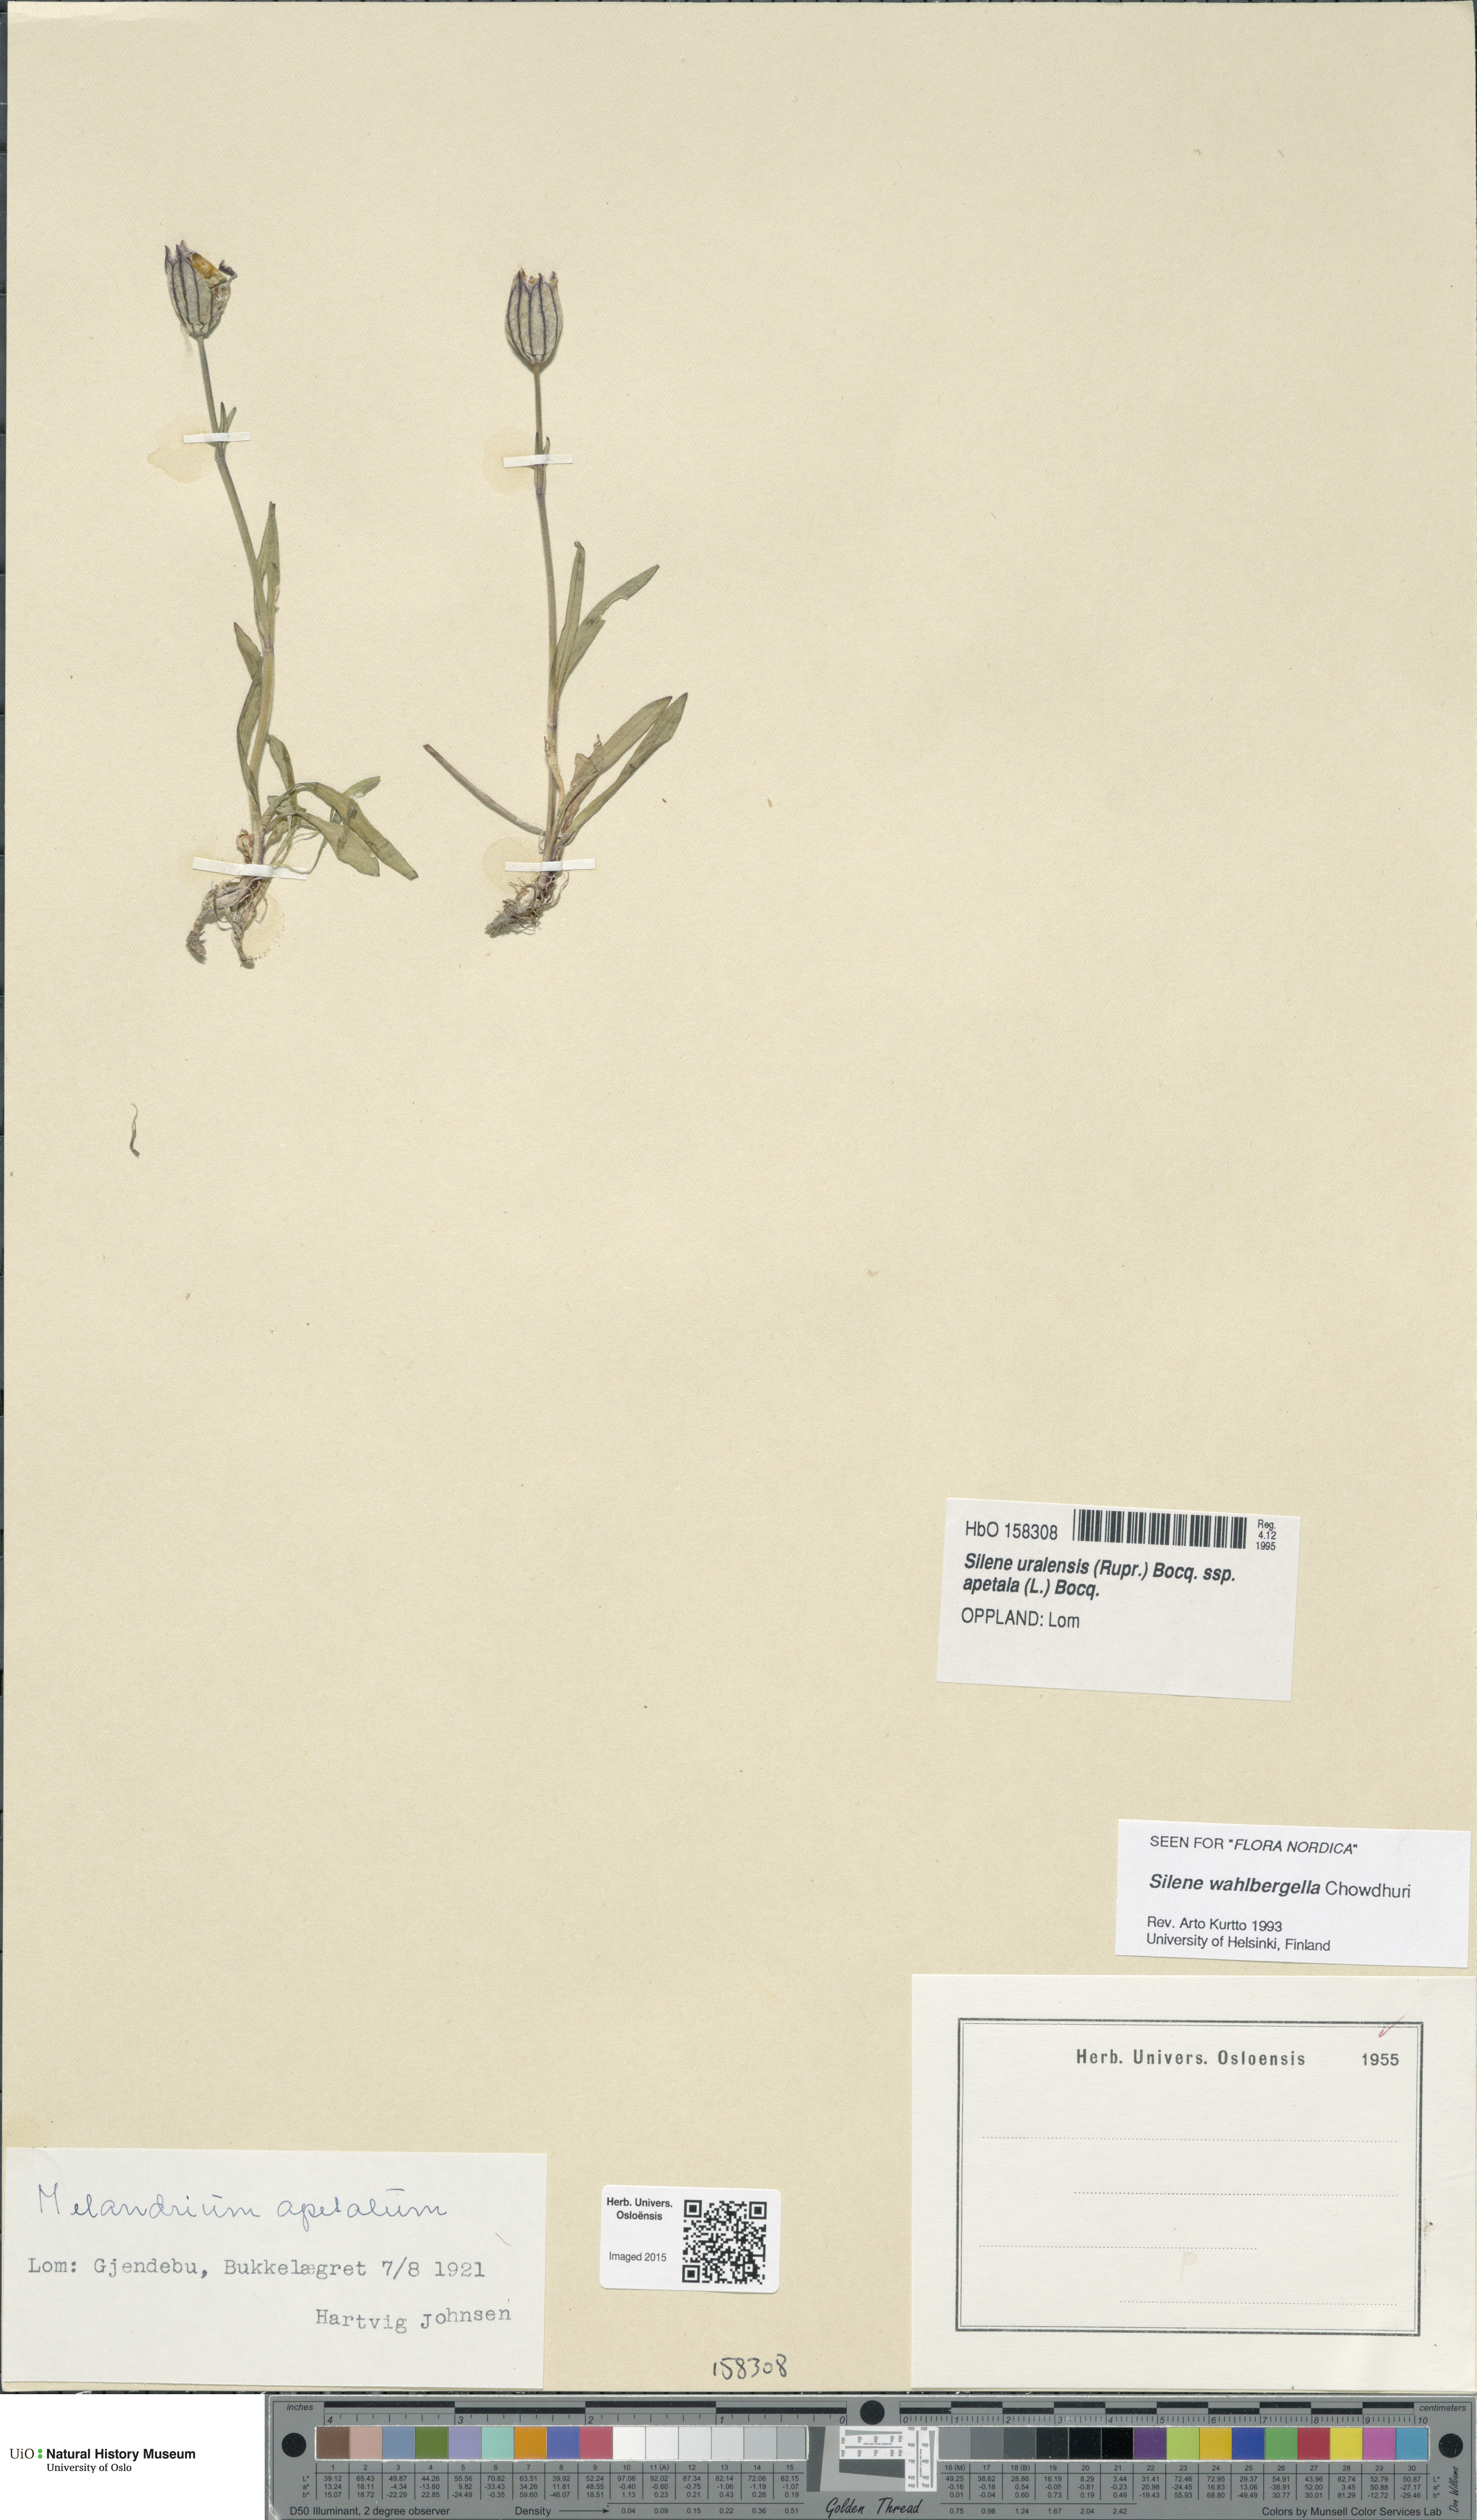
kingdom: Plantae
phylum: Tracheophyta
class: Magnoliopsida
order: Caryophyllales
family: Caryophyllaceae
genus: Silene
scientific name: Silene wahlbergella
